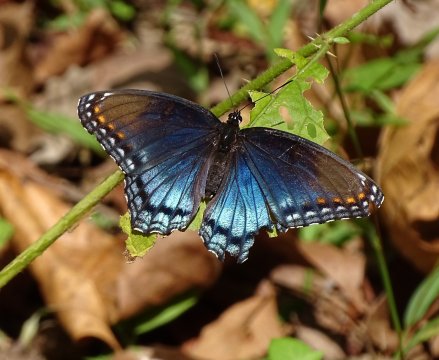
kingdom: Animalia
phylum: Arthropoda
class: Insecta
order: Lepidoptera
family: Nymphalidae
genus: Limenitis
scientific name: Limenitis arthemis
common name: Red-spotted Admiral
